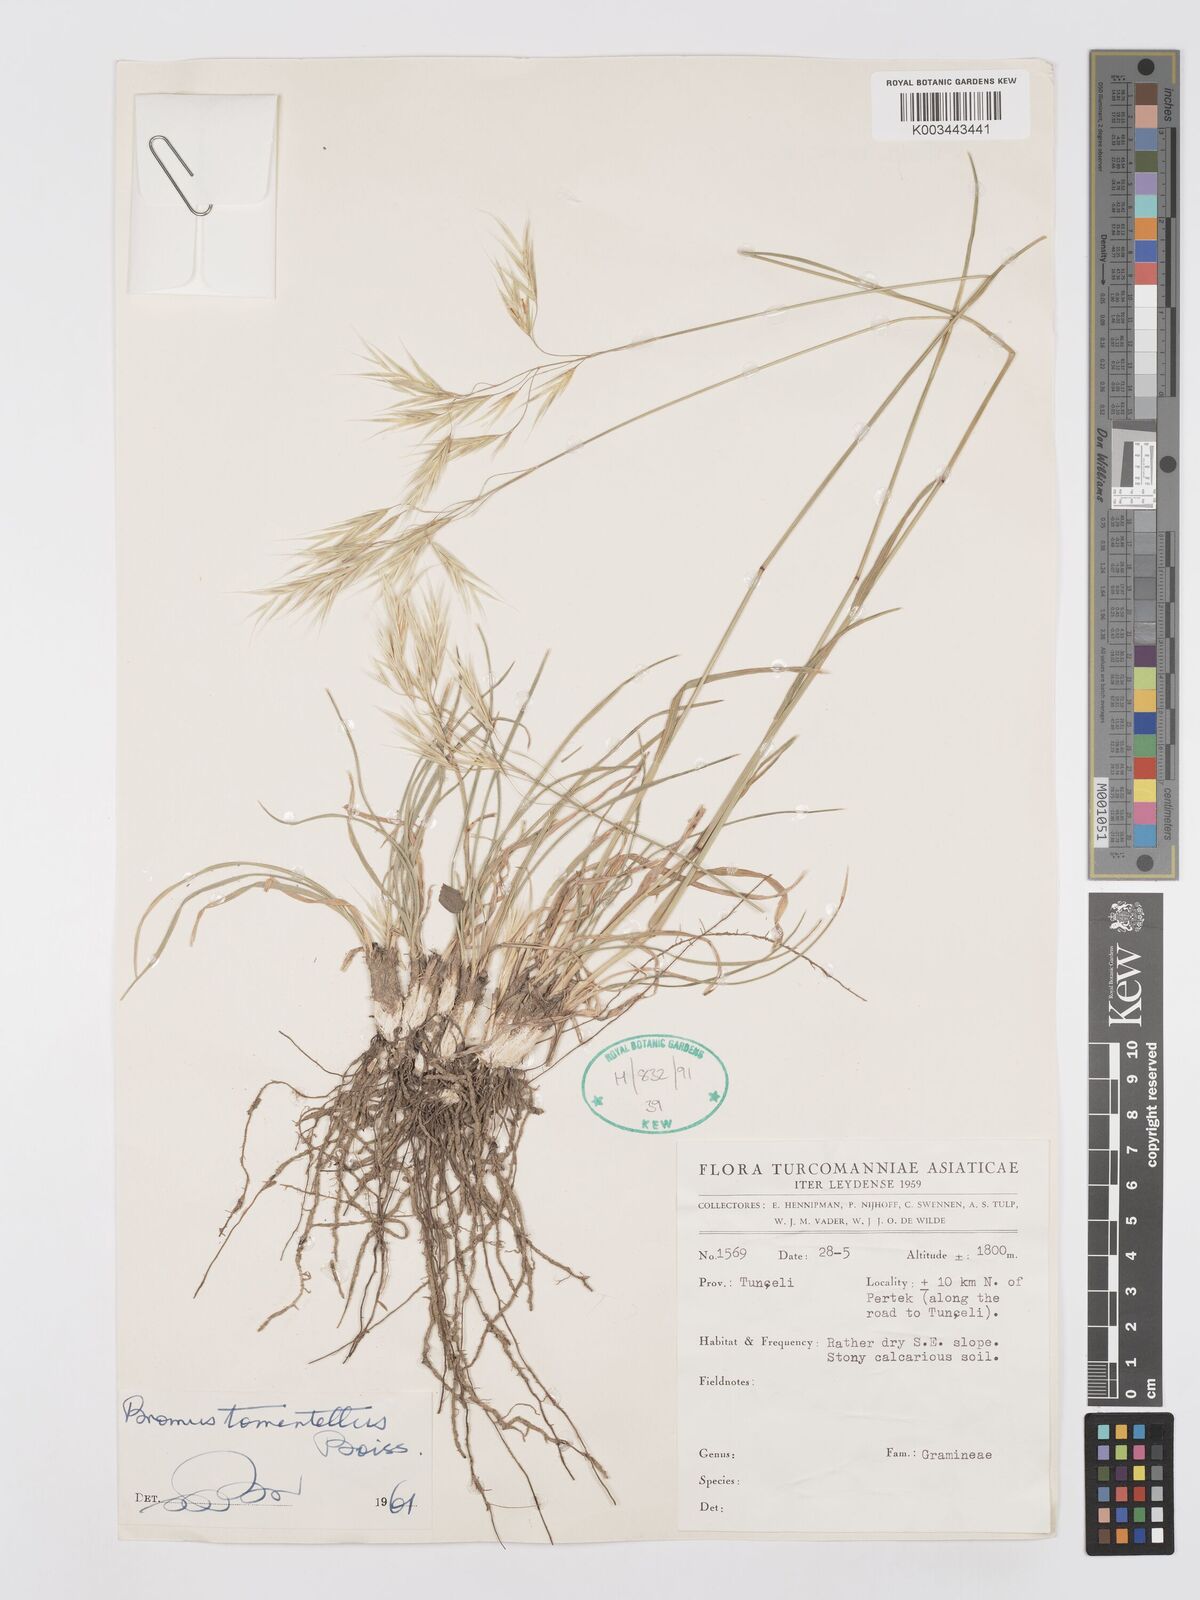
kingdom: Plantae
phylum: Tracheophyta
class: Liliopsida
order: Poales
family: Poaceae
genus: Bromus
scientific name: Bromus tomentellus
